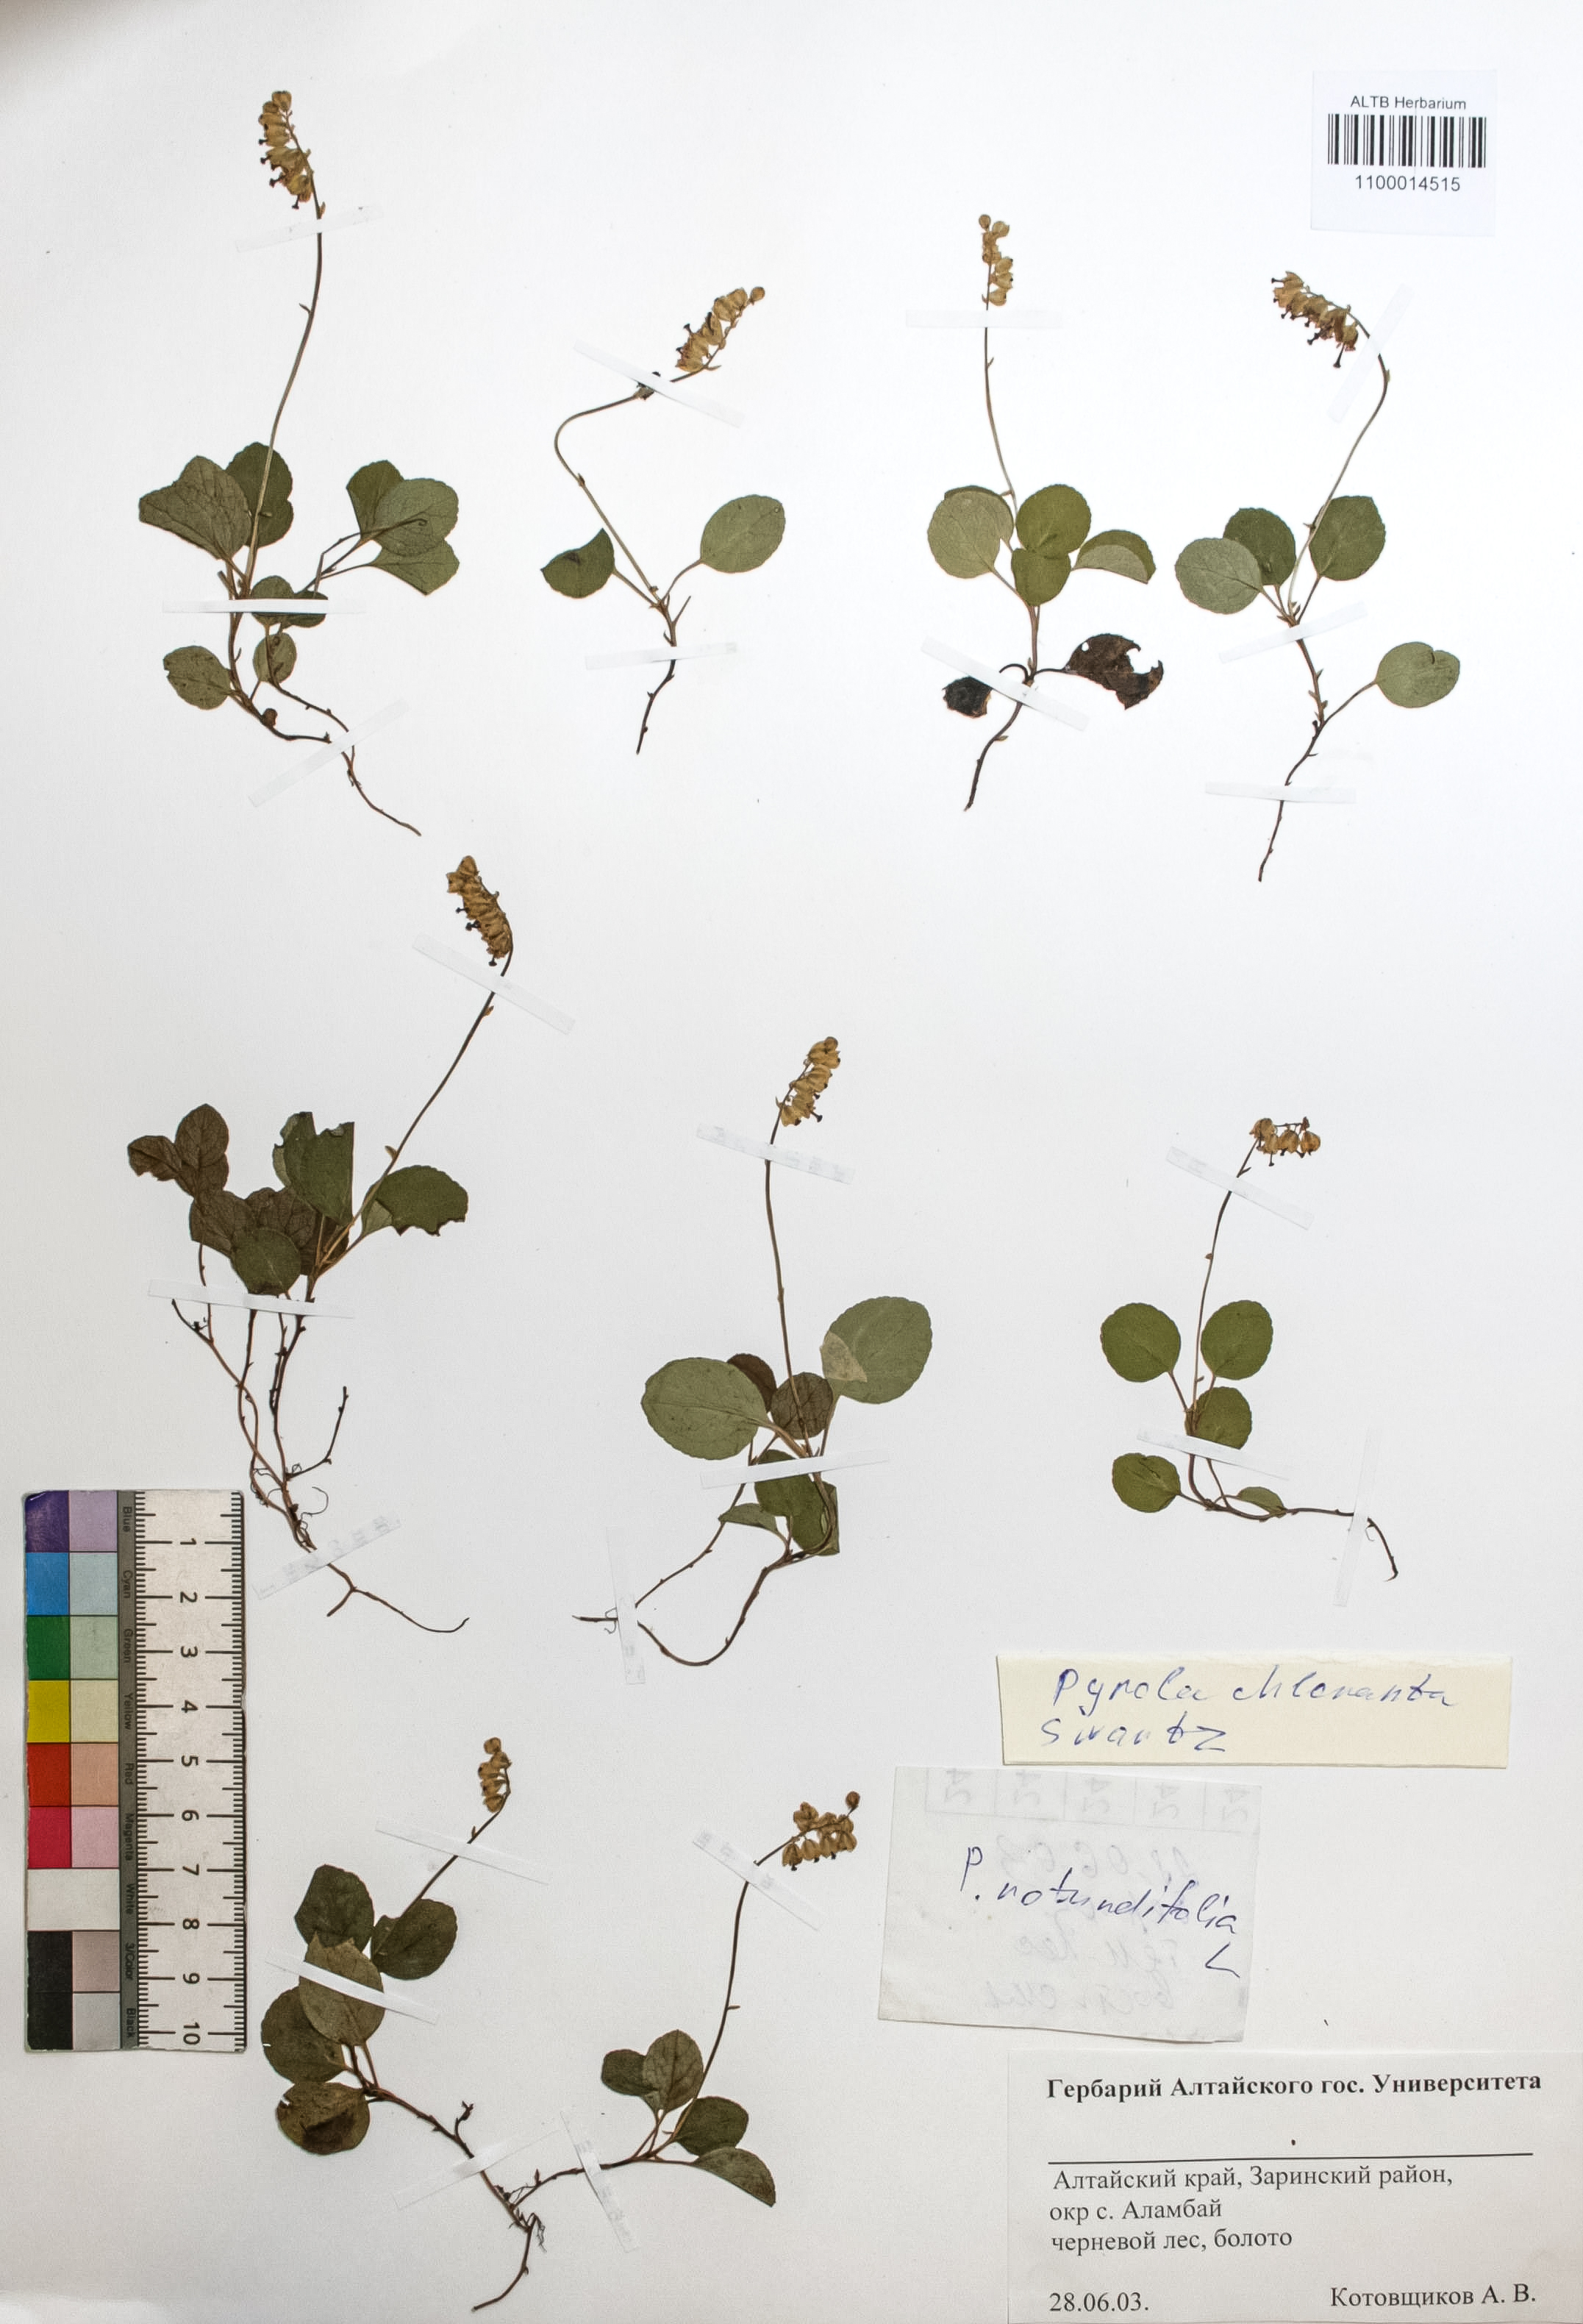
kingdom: Plantae
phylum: Tracheophyta
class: Magnoliopsida
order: Ericales
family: Ericaceae
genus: Pyrola
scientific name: Pyrola chlorantha
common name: Green wintergreen
